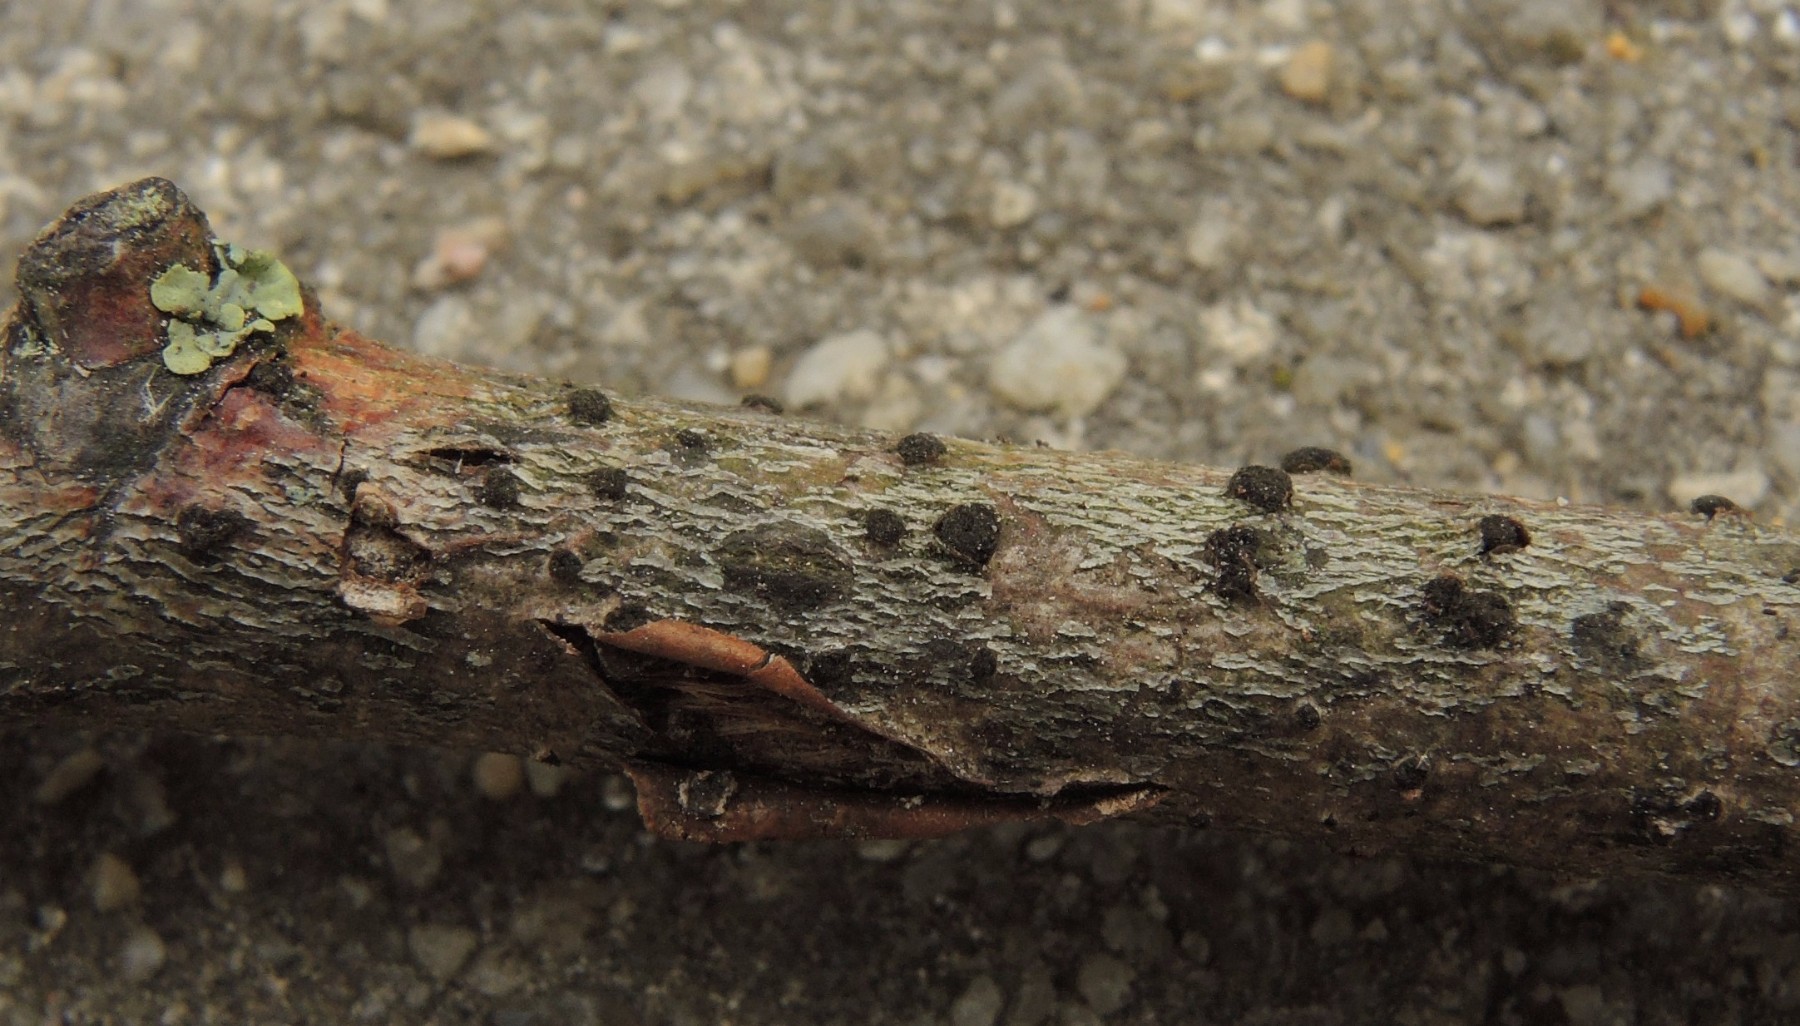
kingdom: Fungi
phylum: Ascomycota
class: Dothideomycetes
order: Pleosporales
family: Massarinaceae
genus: Helminthosporium
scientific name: Helminthosporium oligosporum
